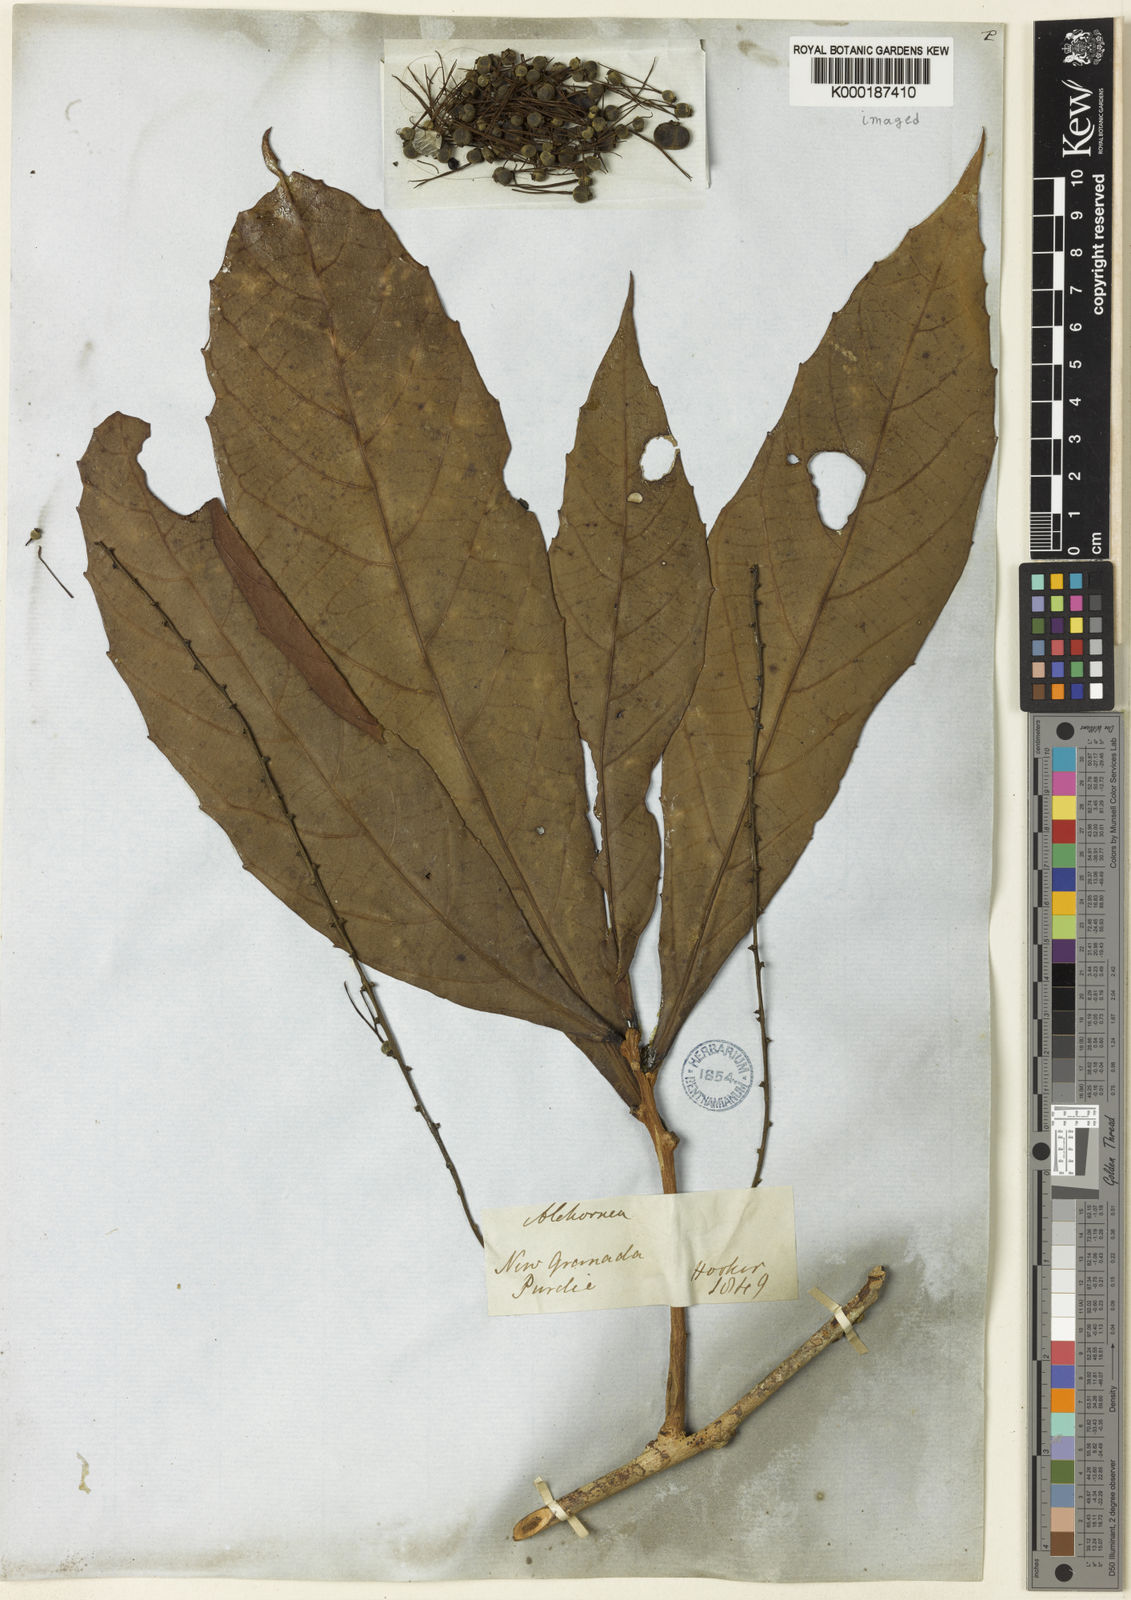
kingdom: Plantae
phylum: Tracheophyta
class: Magnoliopsida
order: Malpighiales
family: Euphorbiaceae
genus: Alchornea
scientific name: Alchornea
